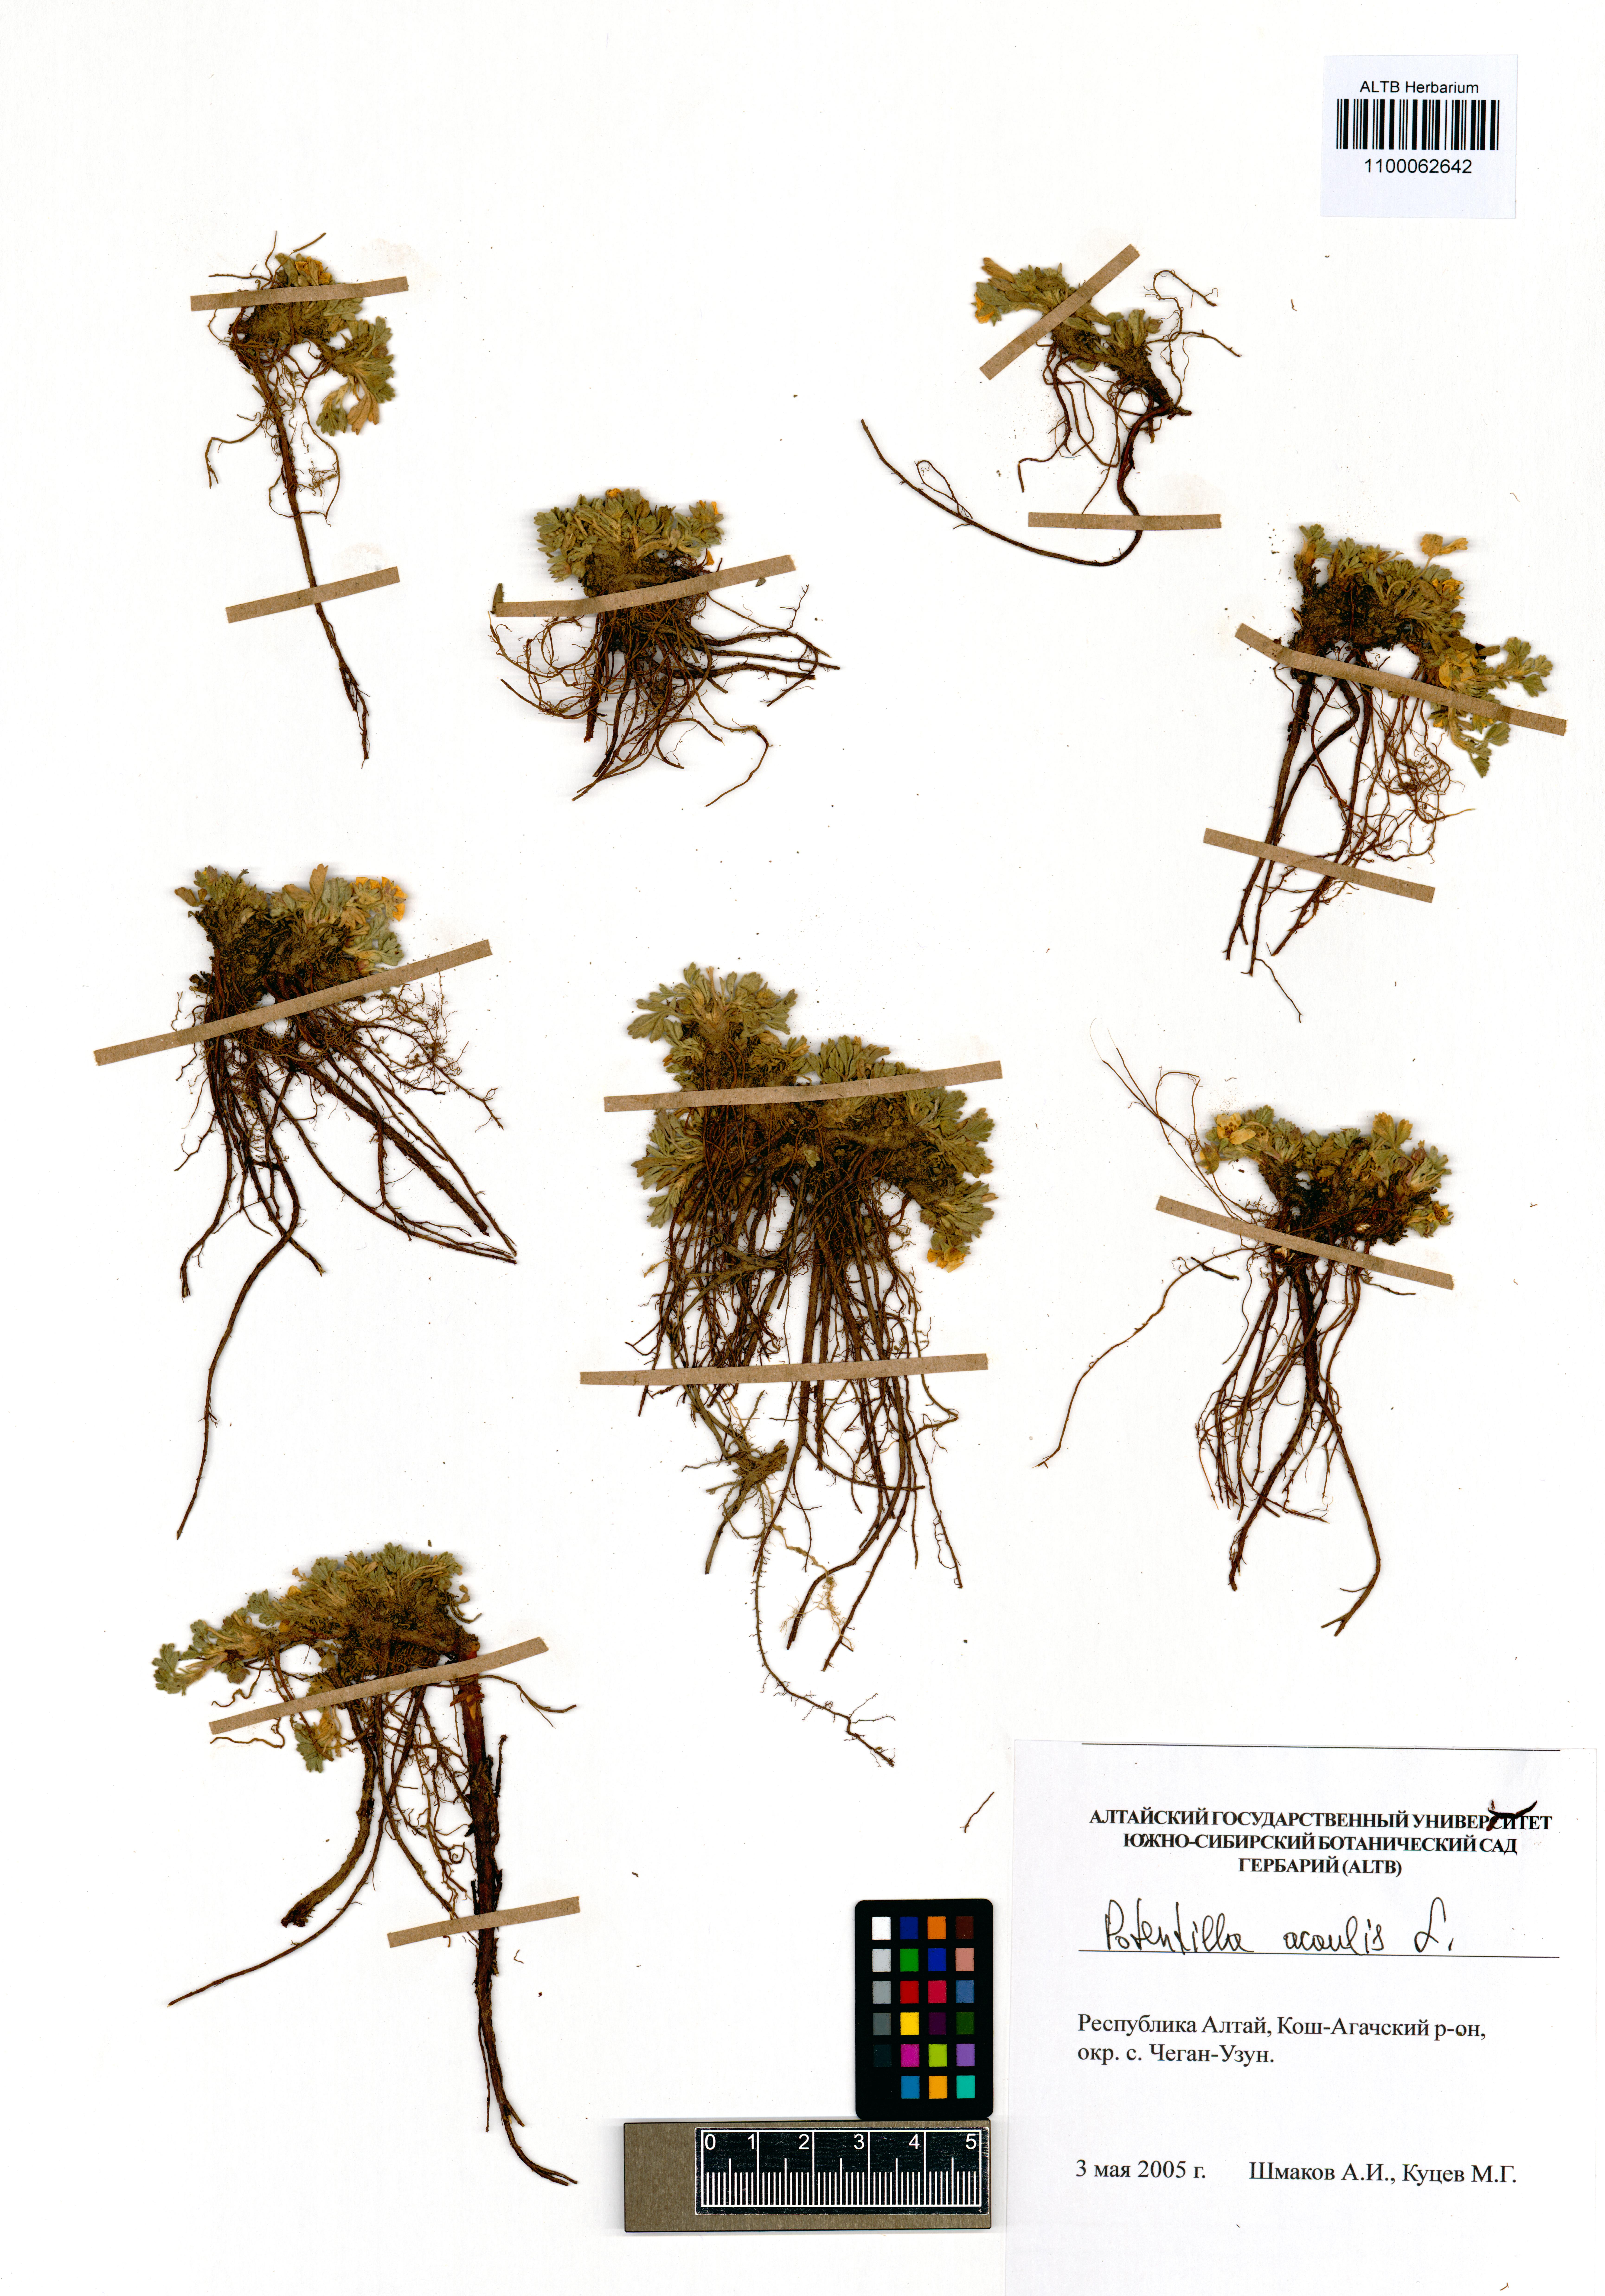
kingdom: Plantae
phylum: Tracheophyta
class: Magnoliopsida
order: Rosales
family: Rosaceae
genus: Potentilla
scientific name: Potentilla acaulis
